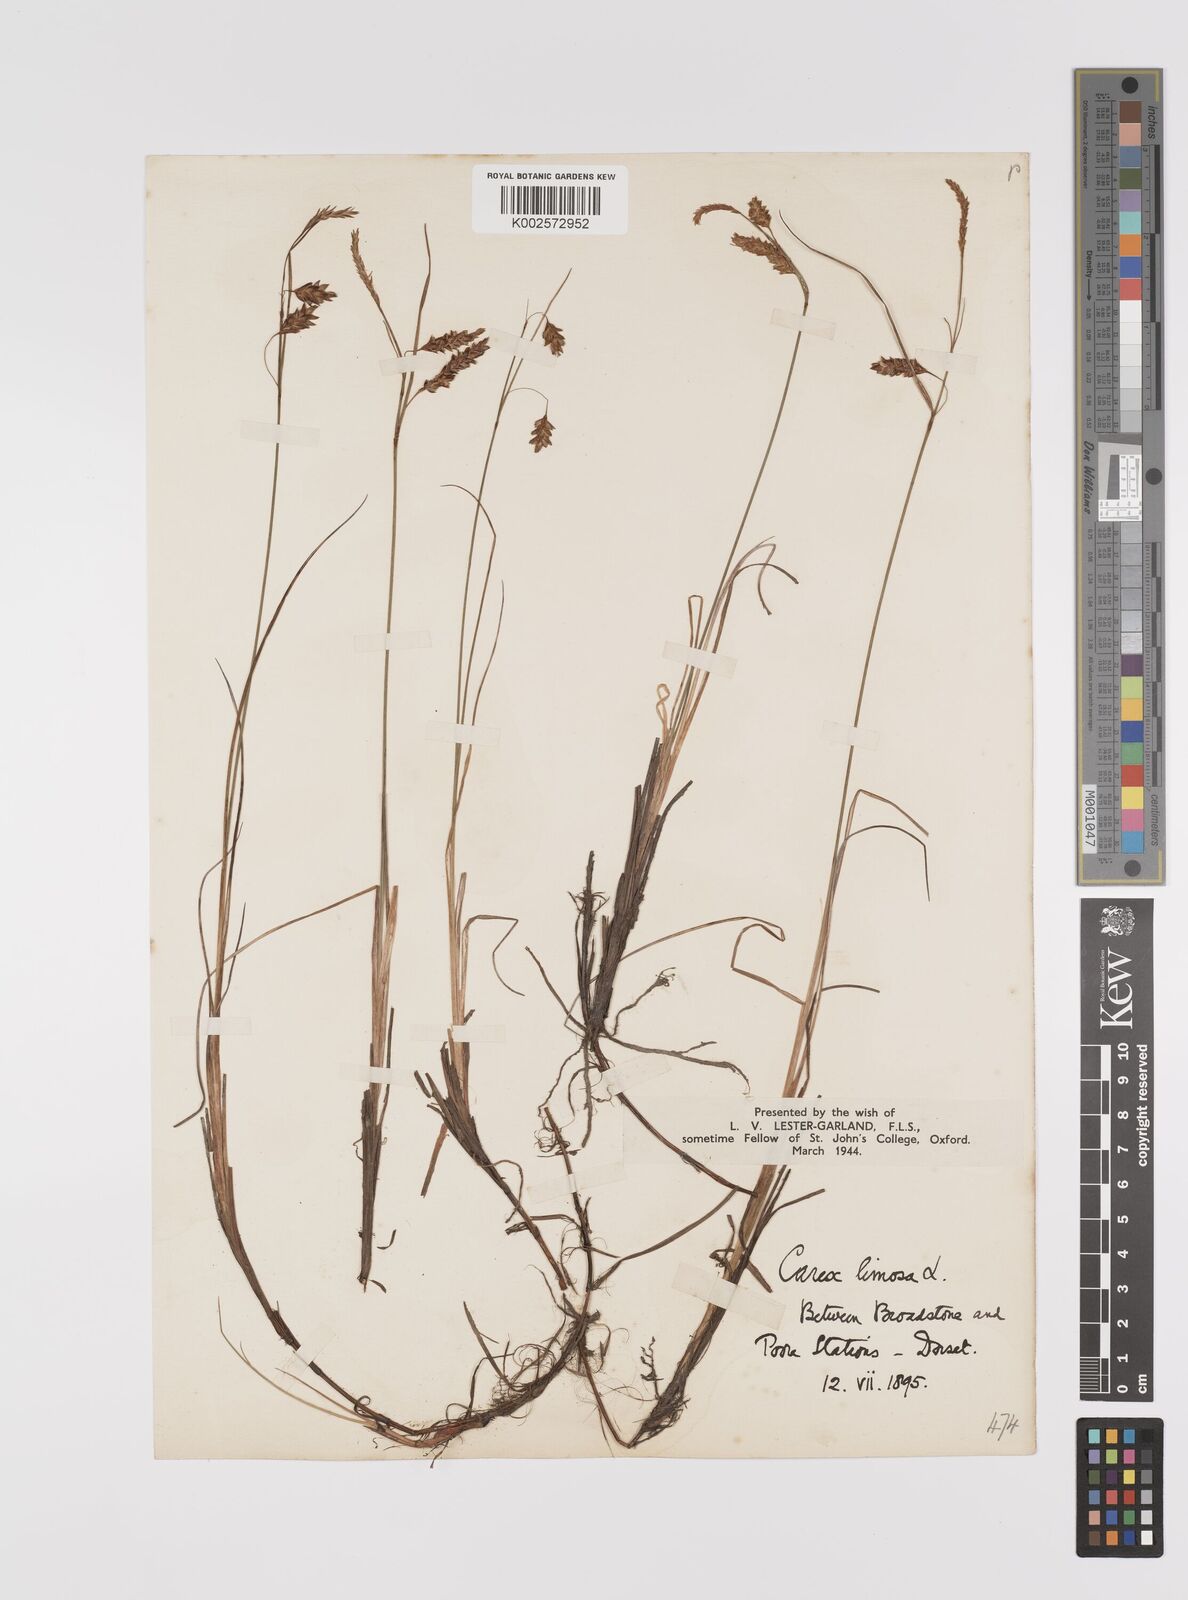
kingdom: Plantae
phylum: Tracheophyta
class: Liliopsida
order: Poales
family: Cyperaceae
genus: Carex
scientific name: Carex limosa
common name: Bog sedge
